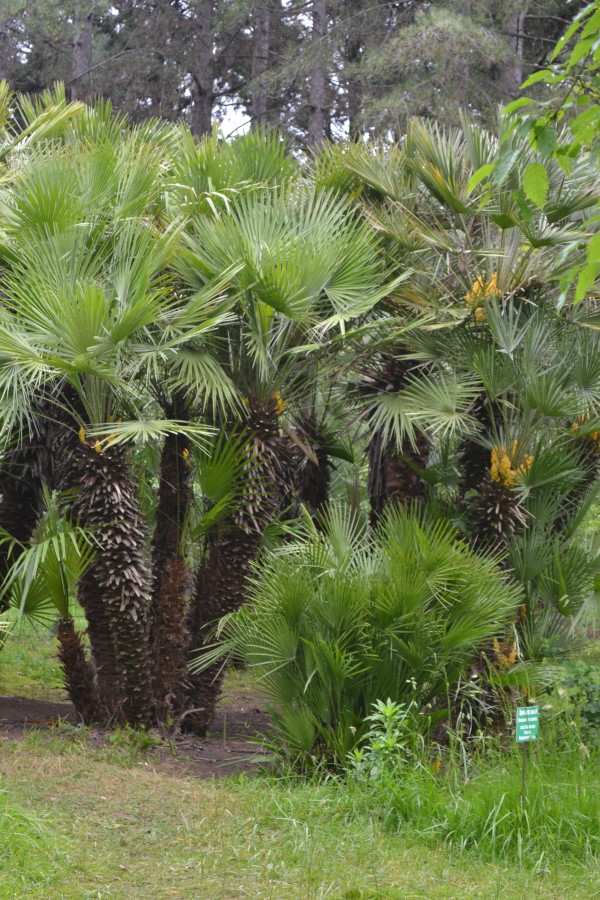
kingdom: Plantae
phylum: Tracheophyta
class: Liliopsida
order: Arecales
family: Arecaceae
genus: Chamaerops
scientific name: Chamaerops humilis
